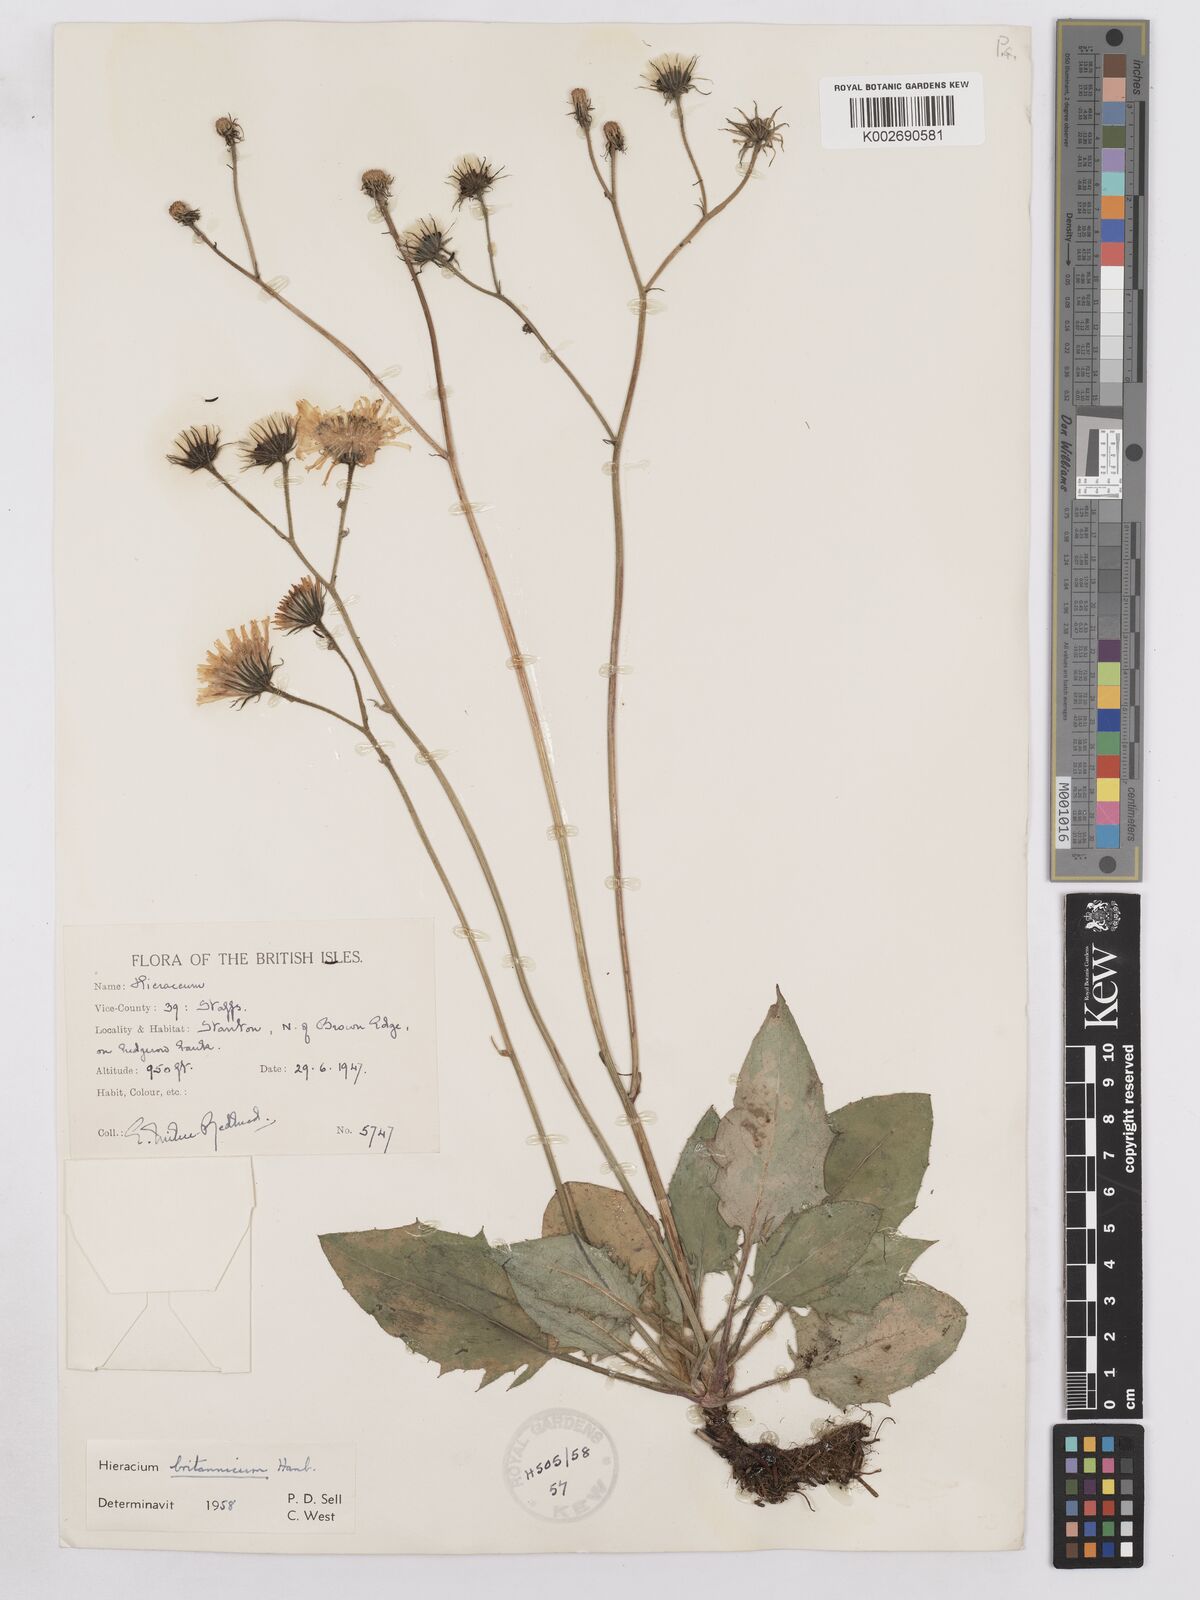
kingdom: Plantae
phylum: Tracheophyta
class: Magnoliopsida
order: Asterales
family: Asteraceae
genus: Hieracium
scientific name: Hieracium britannicum
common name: British hawkweed
